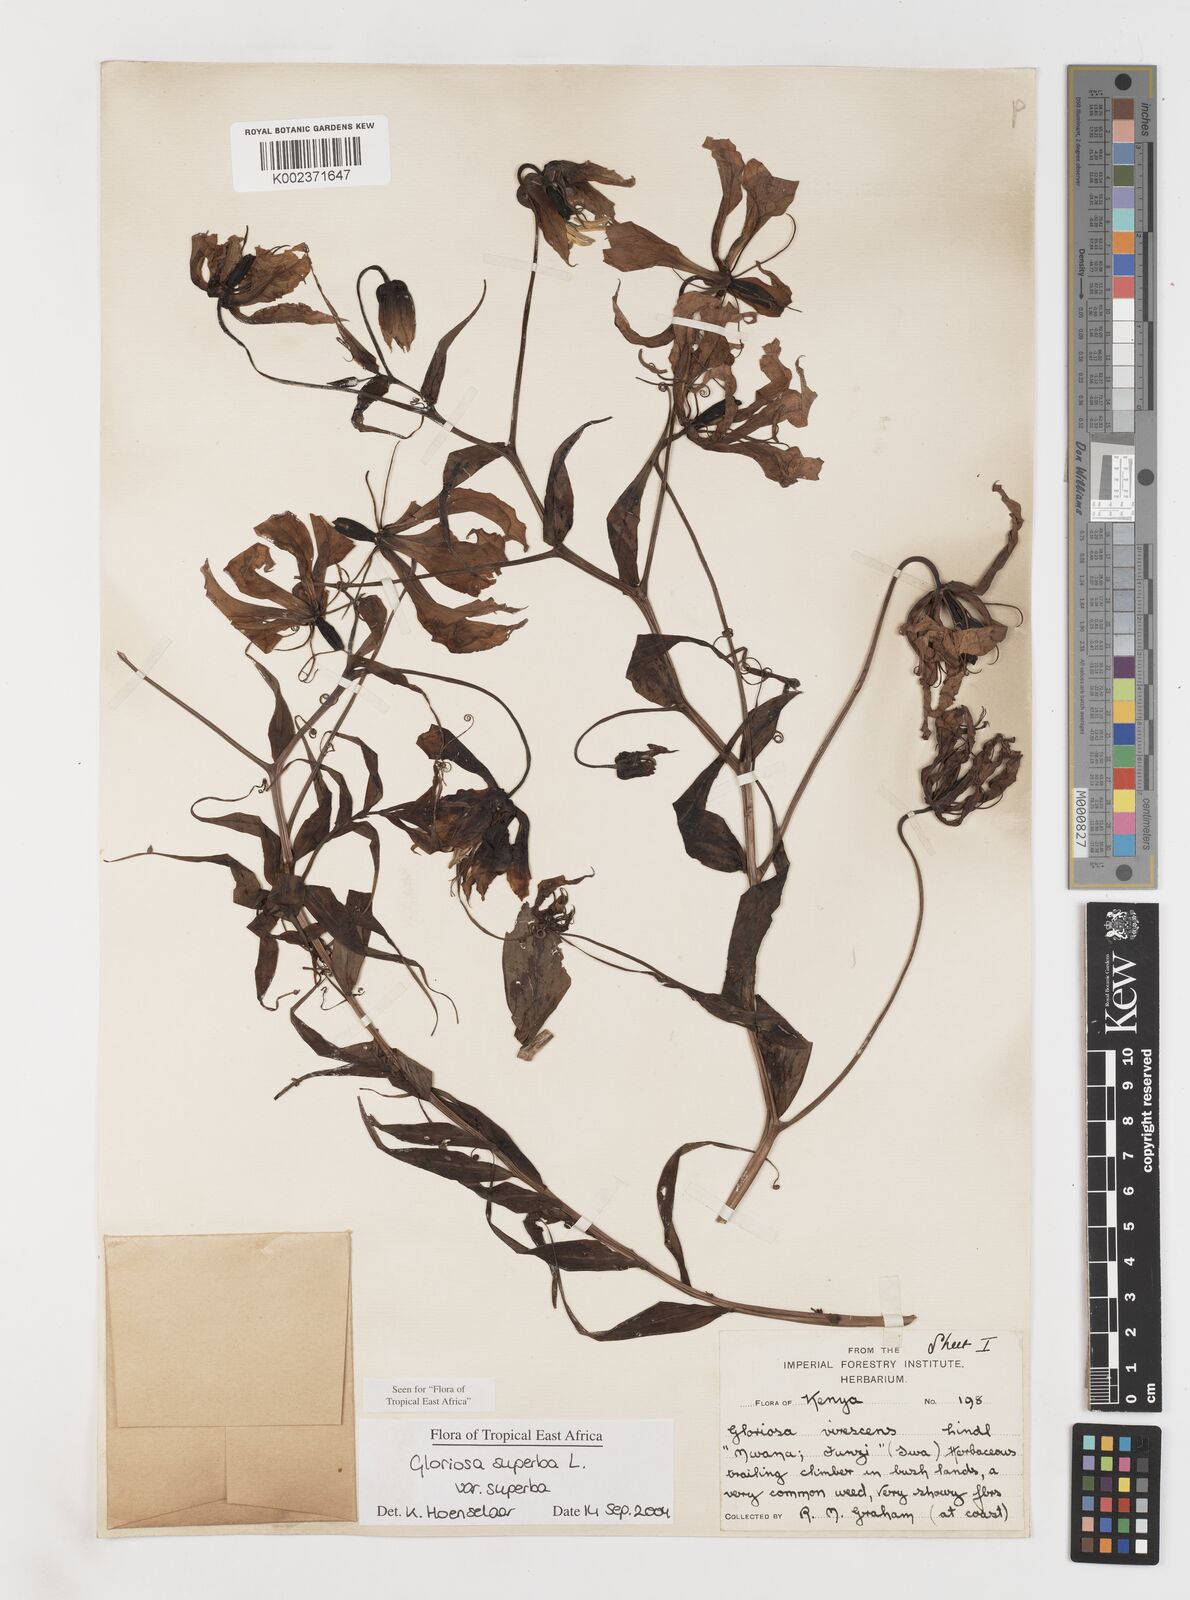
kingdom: Plantae
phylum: Tracheophyta
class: Liliopsida
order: Liliales
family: Colchicaceae
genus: Gloriosa
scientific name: Gloriosa simplex
